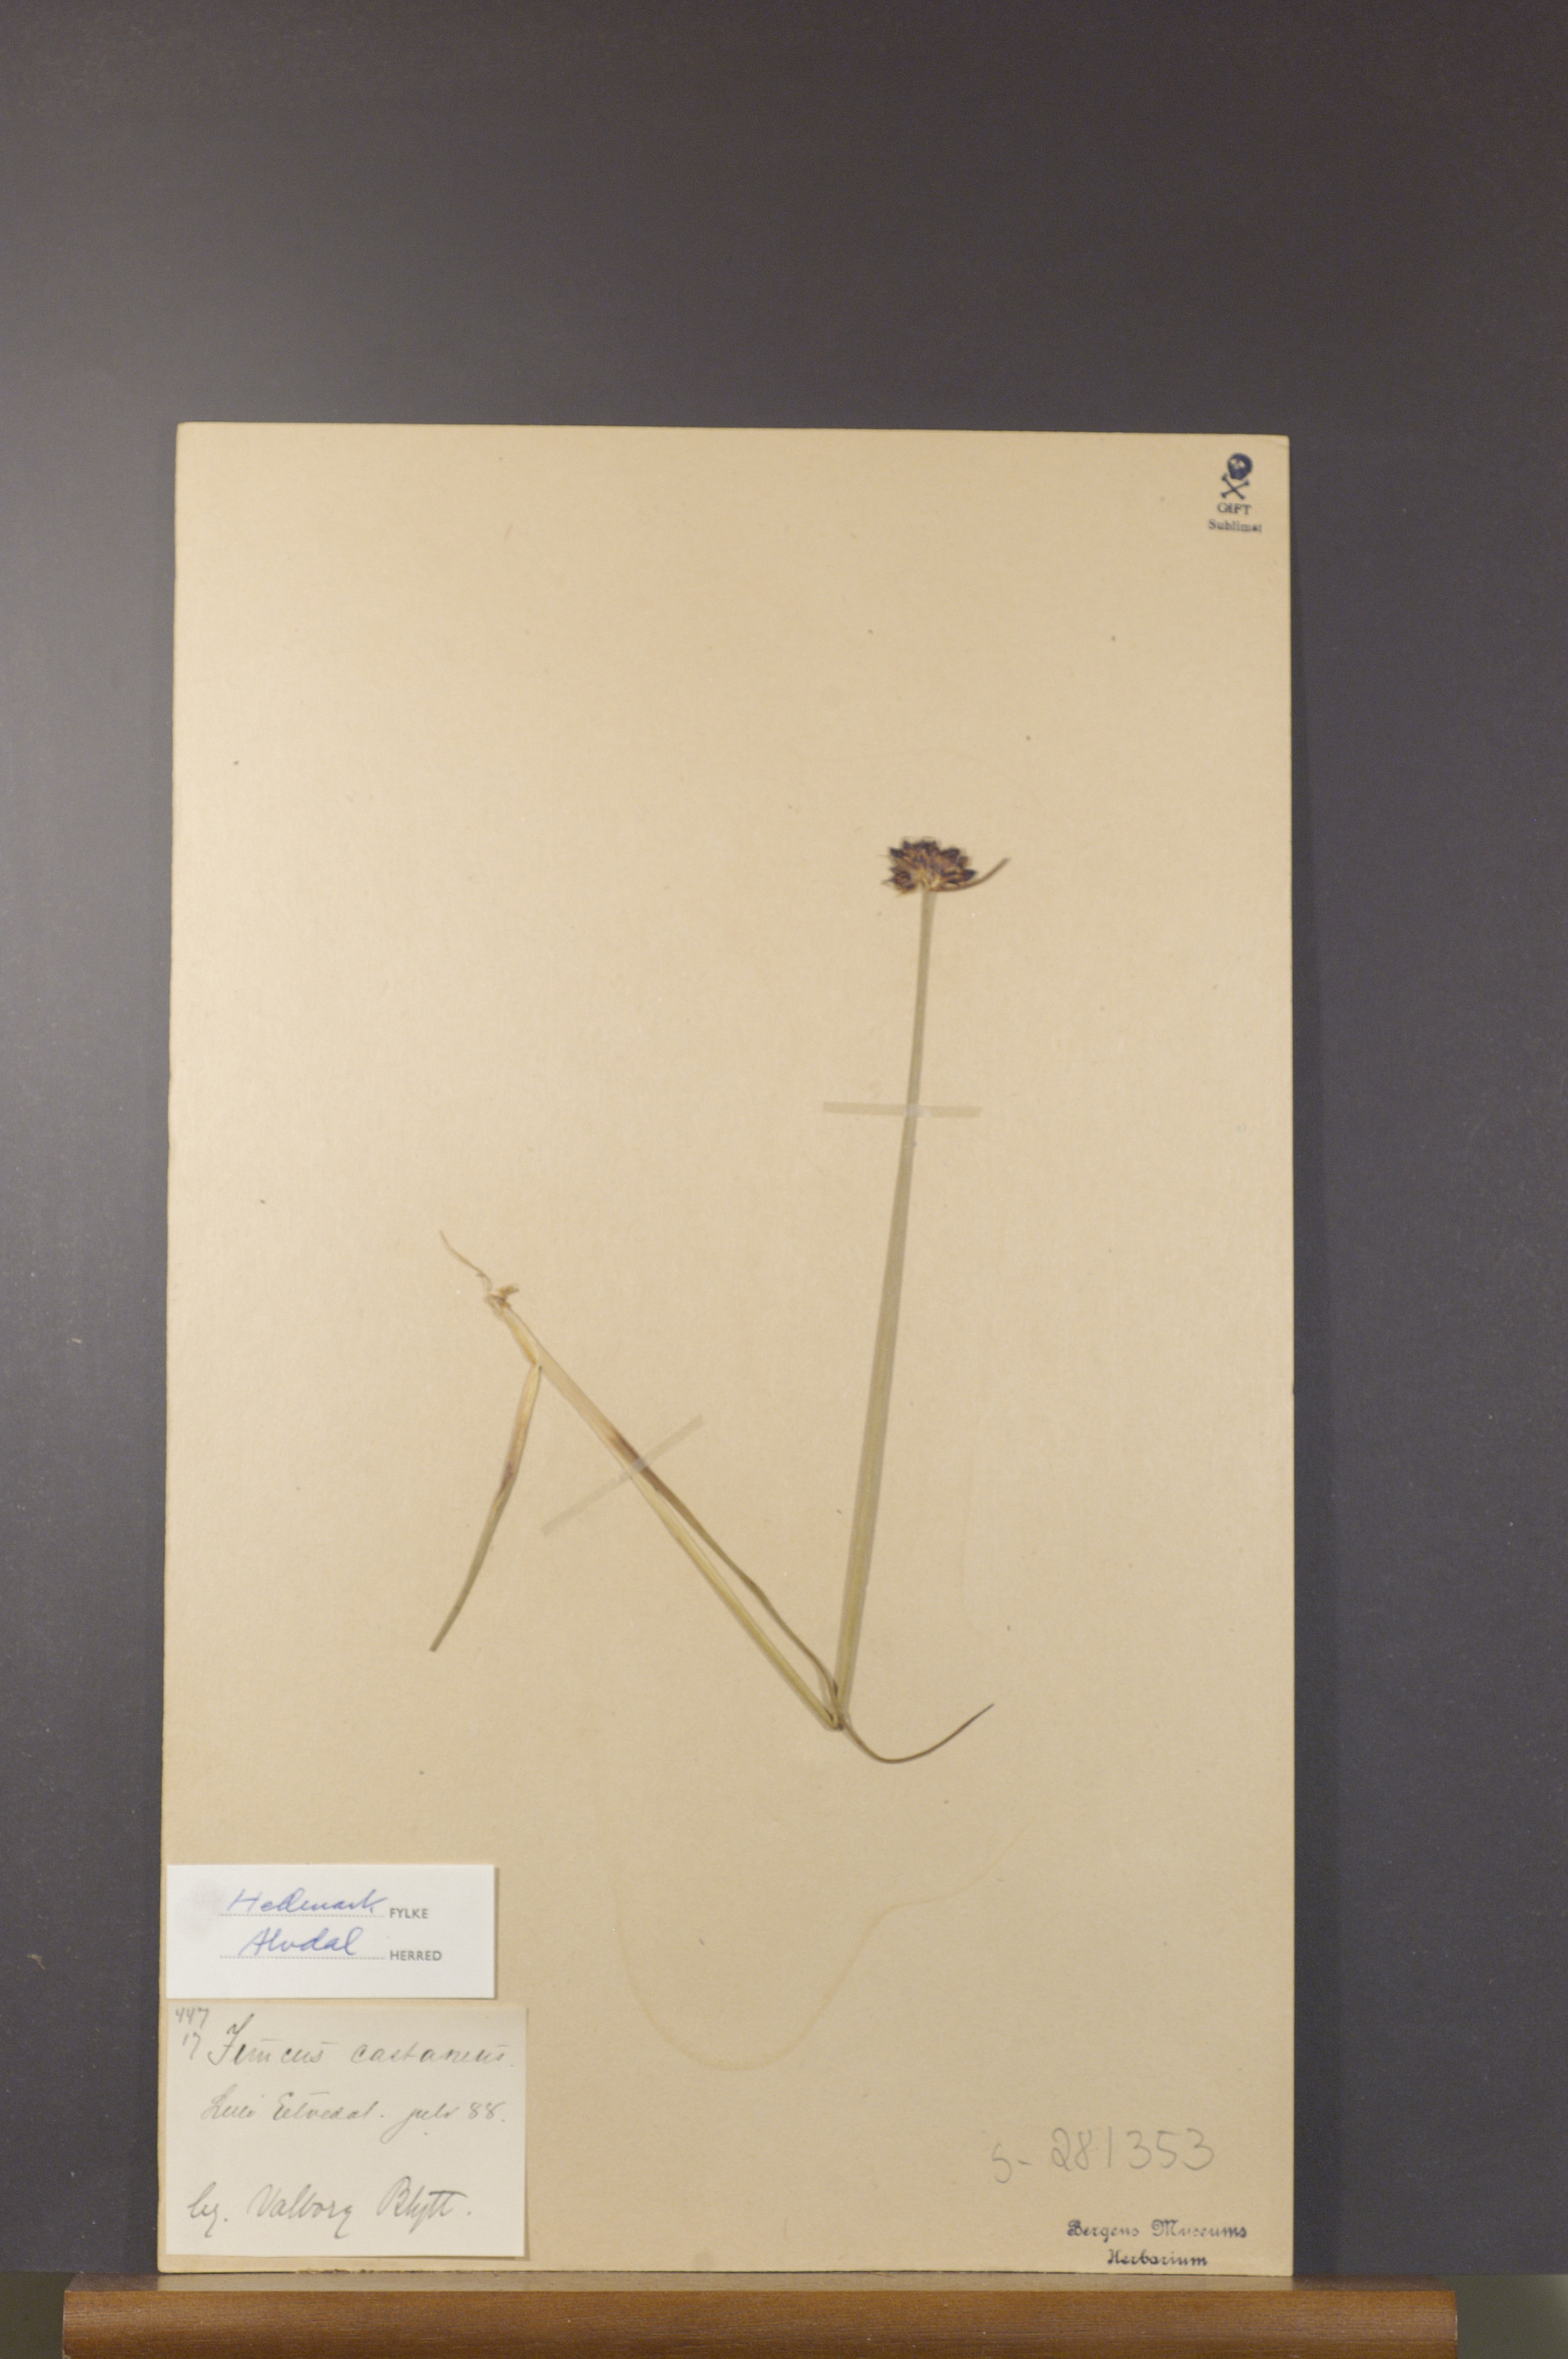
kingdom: Plantae
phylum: Tracheophyta
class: Liliopsida
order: Poales
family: Juncaceae
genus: Juncus
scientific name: Juncus castaneus
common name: Chestnut rush
